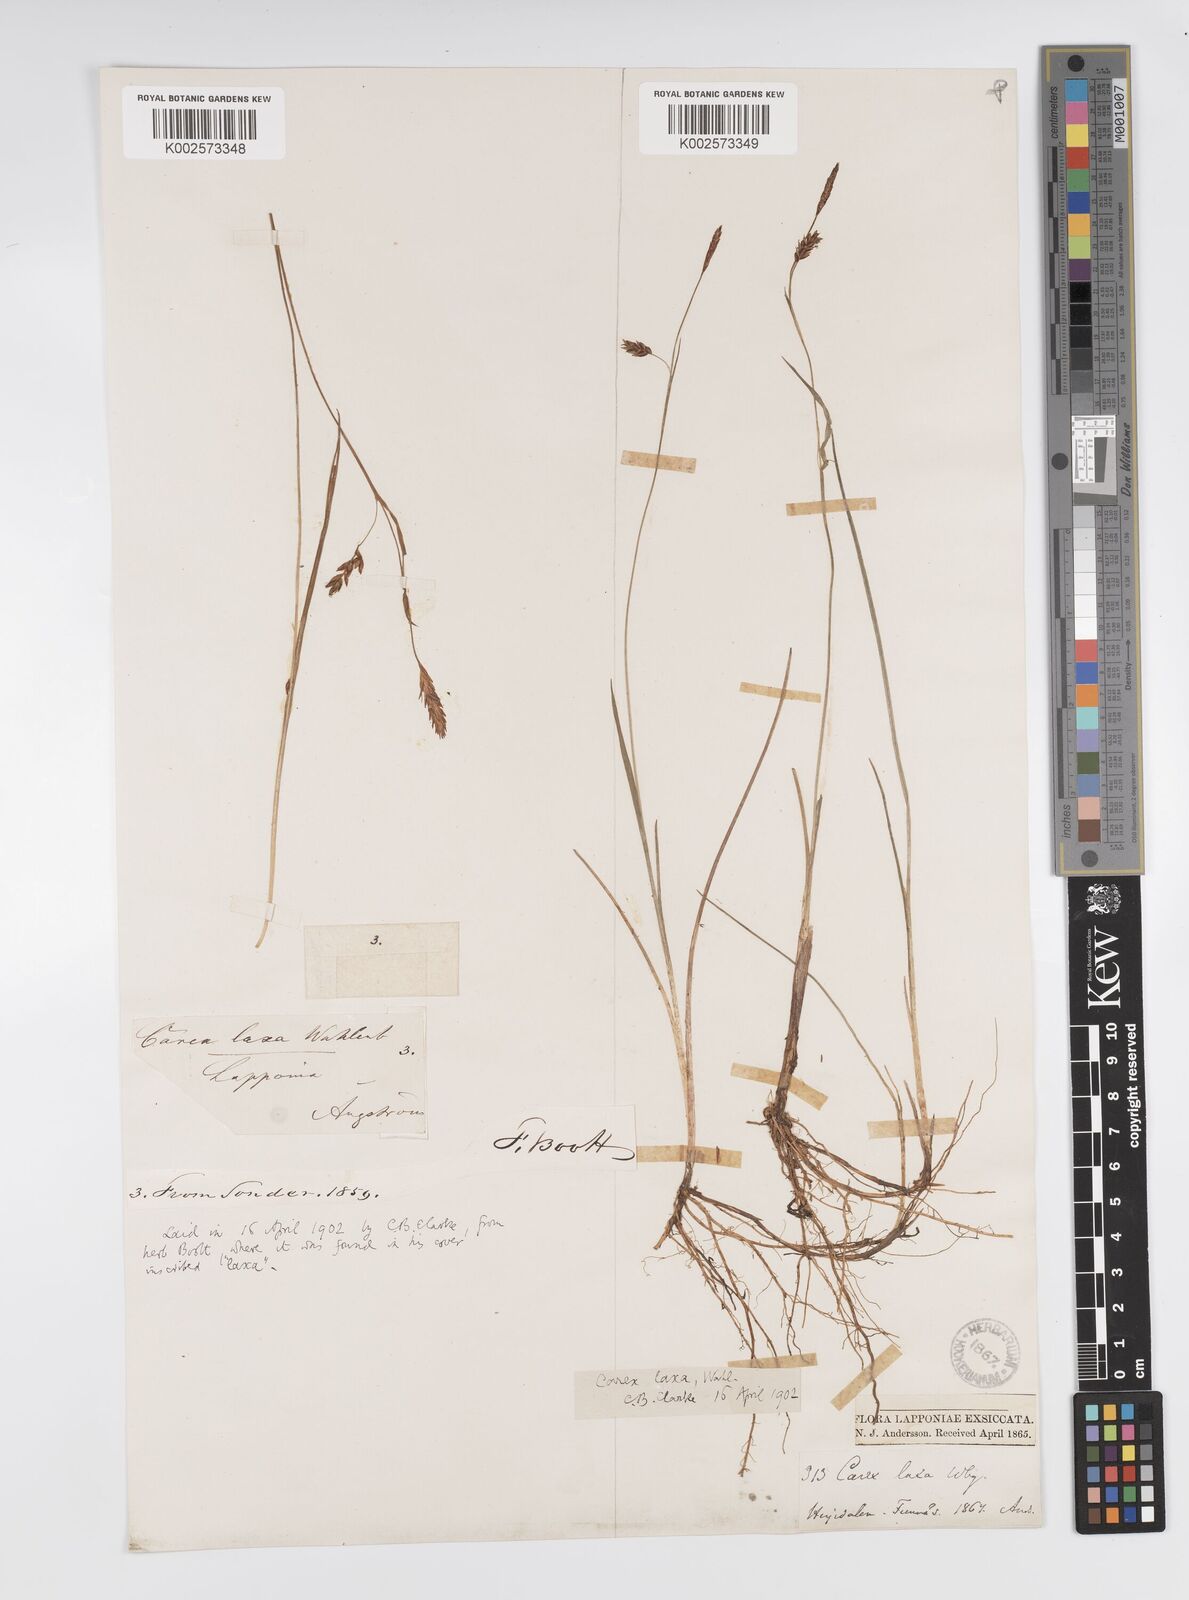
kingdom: Plantae
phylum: Tracheophyta
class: Liliopsida
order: Poales
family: Cyperaceae
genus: Carex
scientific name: Carex laxa
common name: Weak sedge
